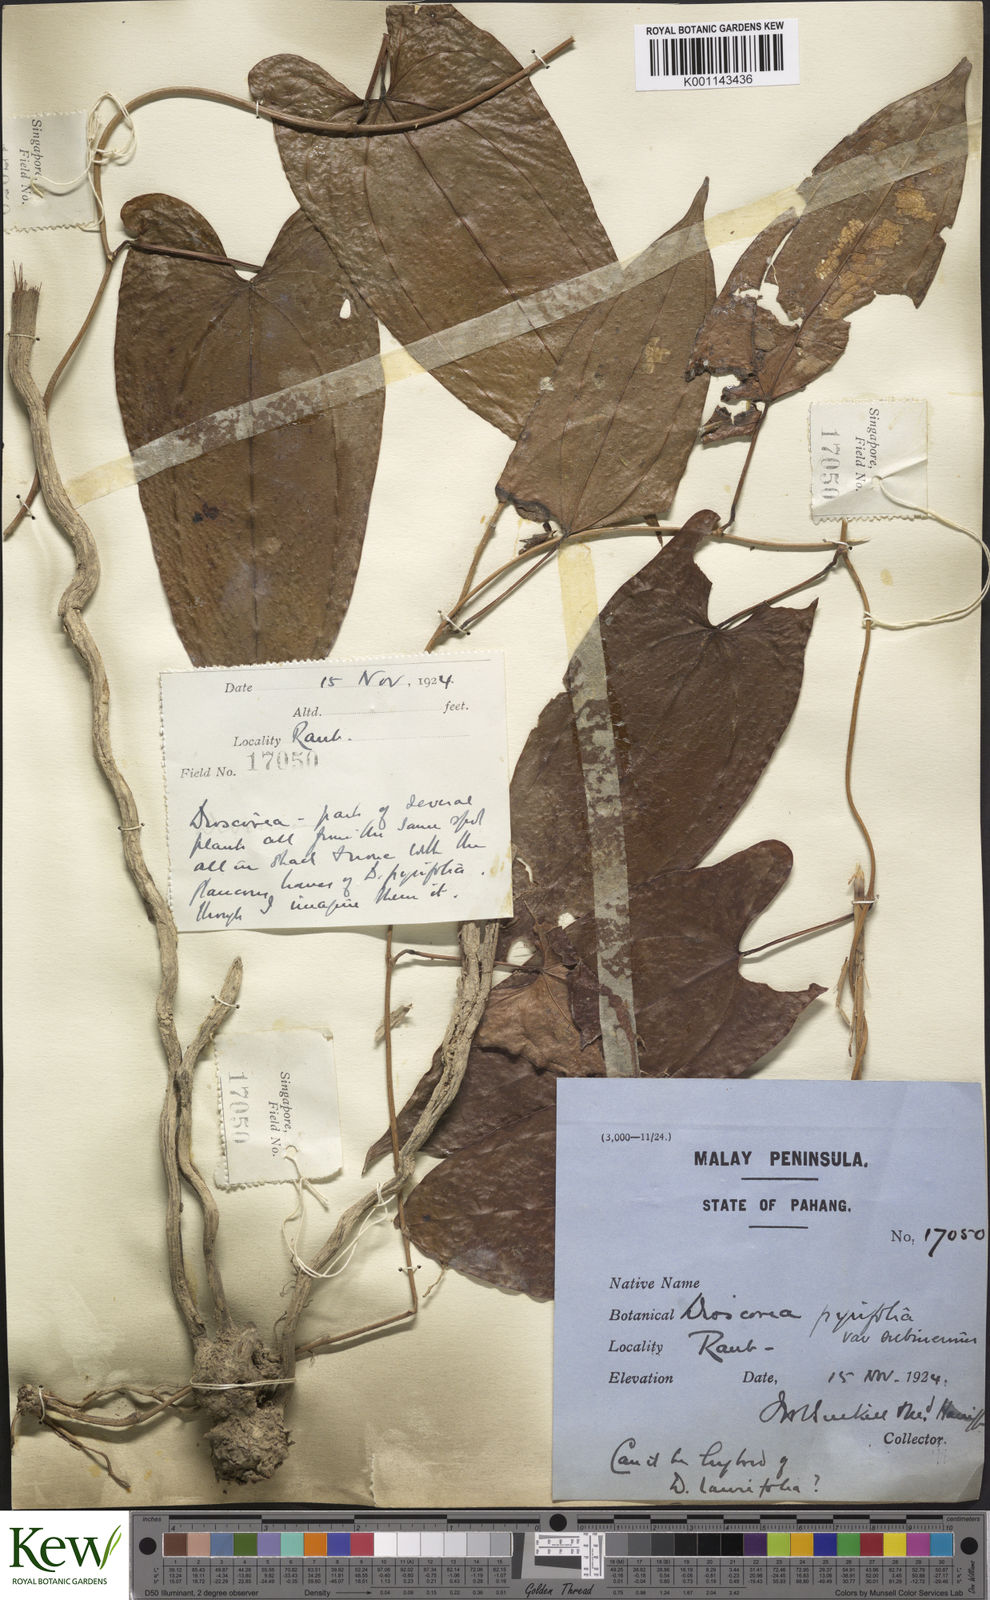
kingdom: Plantae
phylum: Tracheophyta
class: Liliopsida
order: Dioscoreales
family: Dioscoreaceae
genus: Dioscorea
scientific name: Dioscorea pyrifolia
